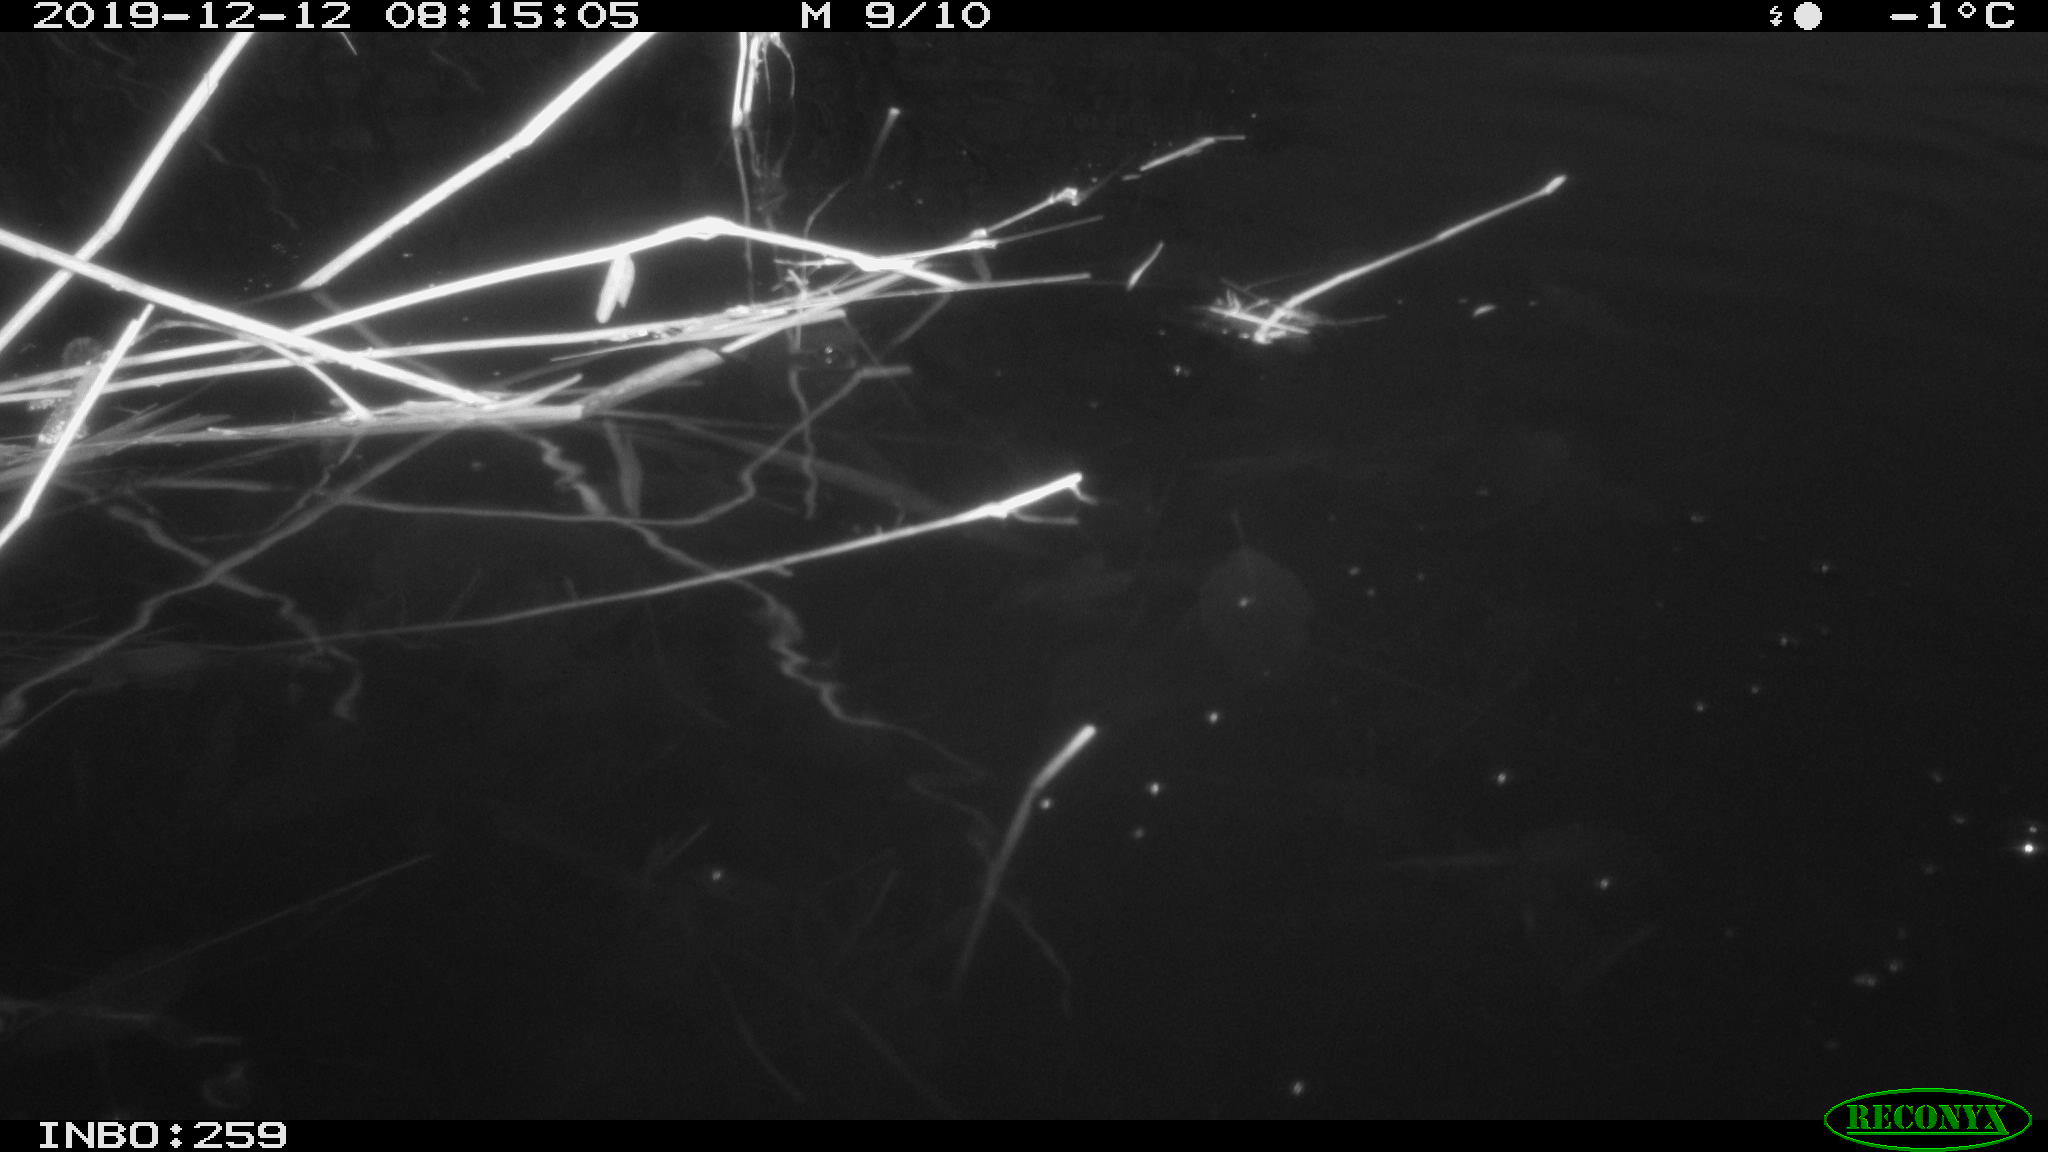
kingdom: Animalia
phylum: Chordata
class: Aves
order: Gruiformes
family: Rallidae
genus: Gallinula
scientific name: Gallinula chloropus
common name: Common moorhen
